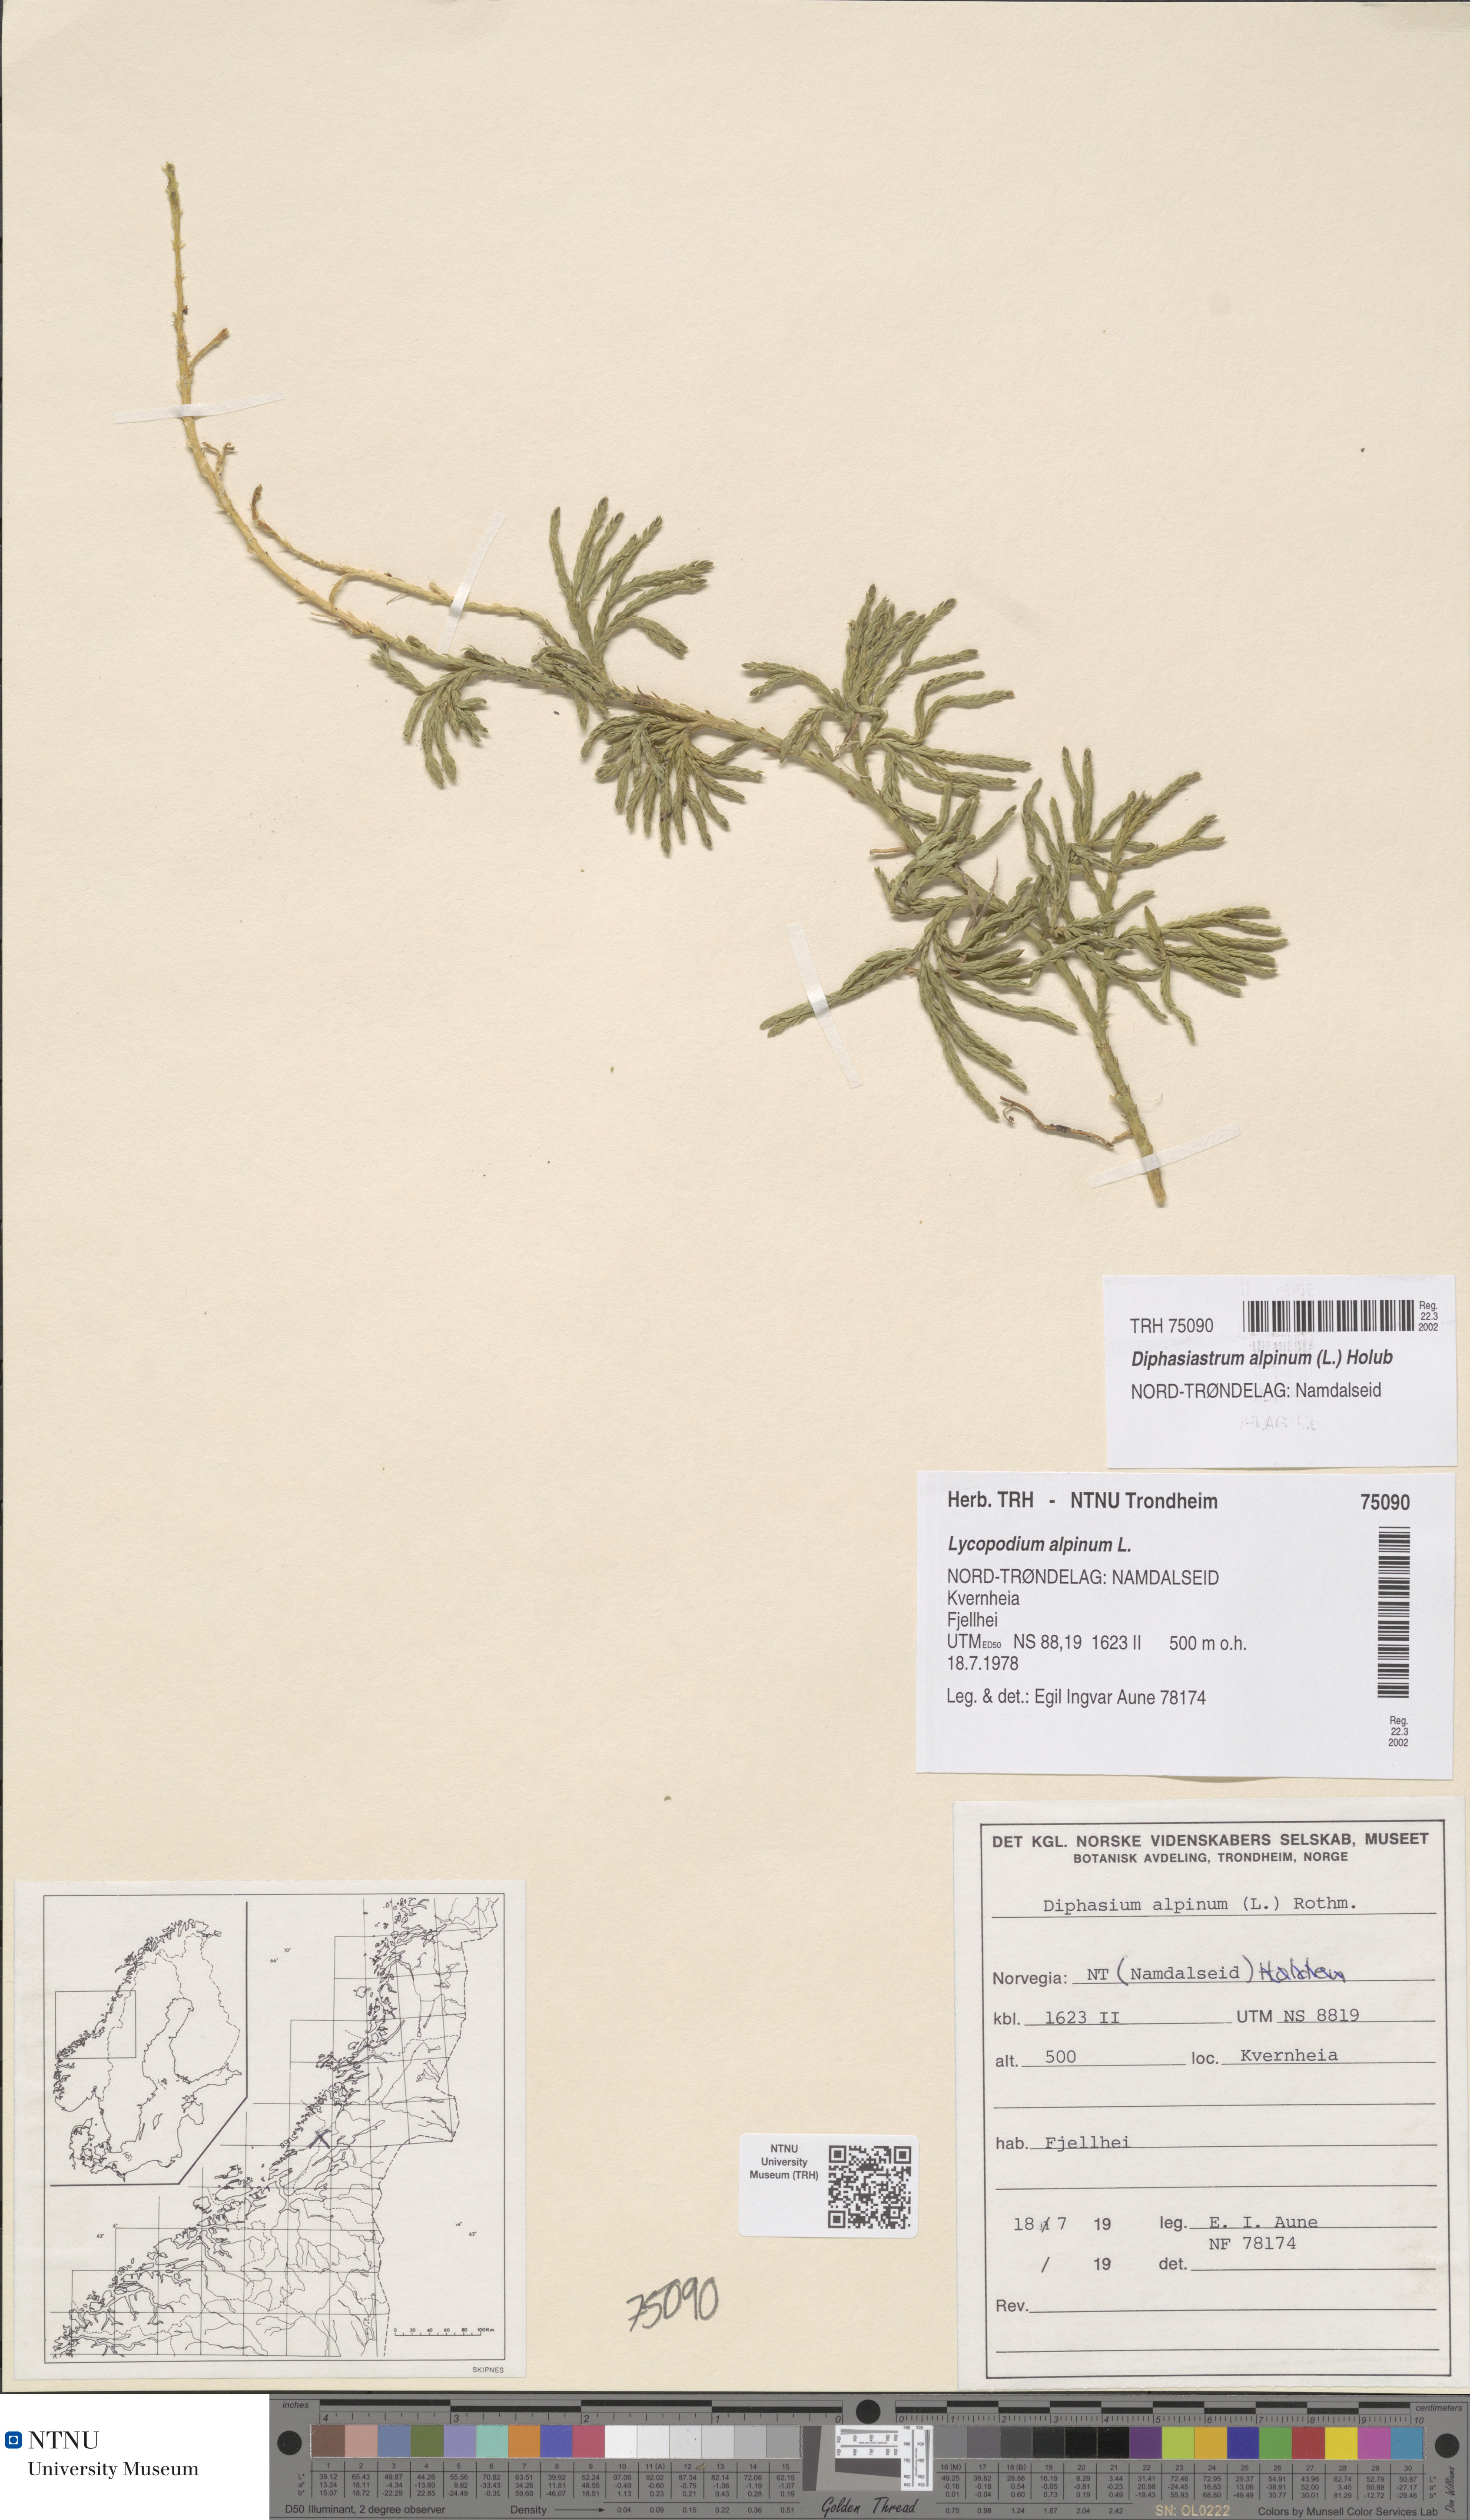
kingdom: Plantae
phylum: Tracheophyta
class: Lycopodiopsida
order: Lycopodiales
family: Lycopodiaceae
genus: Diphasiastrum
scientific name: Diphasiastrum alpinum
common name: Alpine clubmoss
